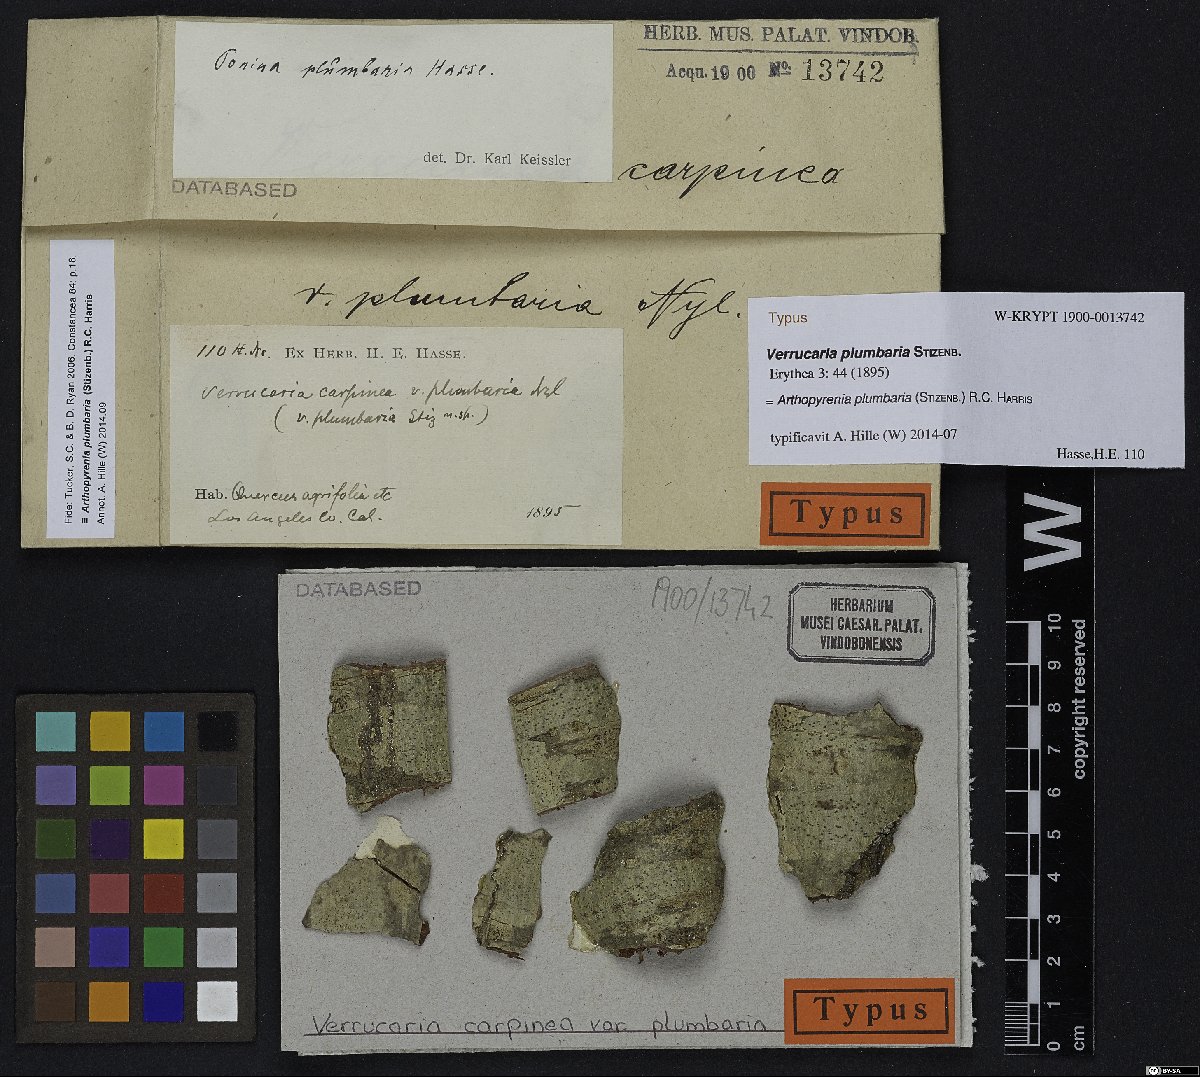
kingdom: Fungi
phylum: Ascomycota
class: Dothideomycetes
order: Trypetheliales
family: Trypetheliaceae
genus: Arthopyrenia
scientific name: Arthopyrenia plumbaria
